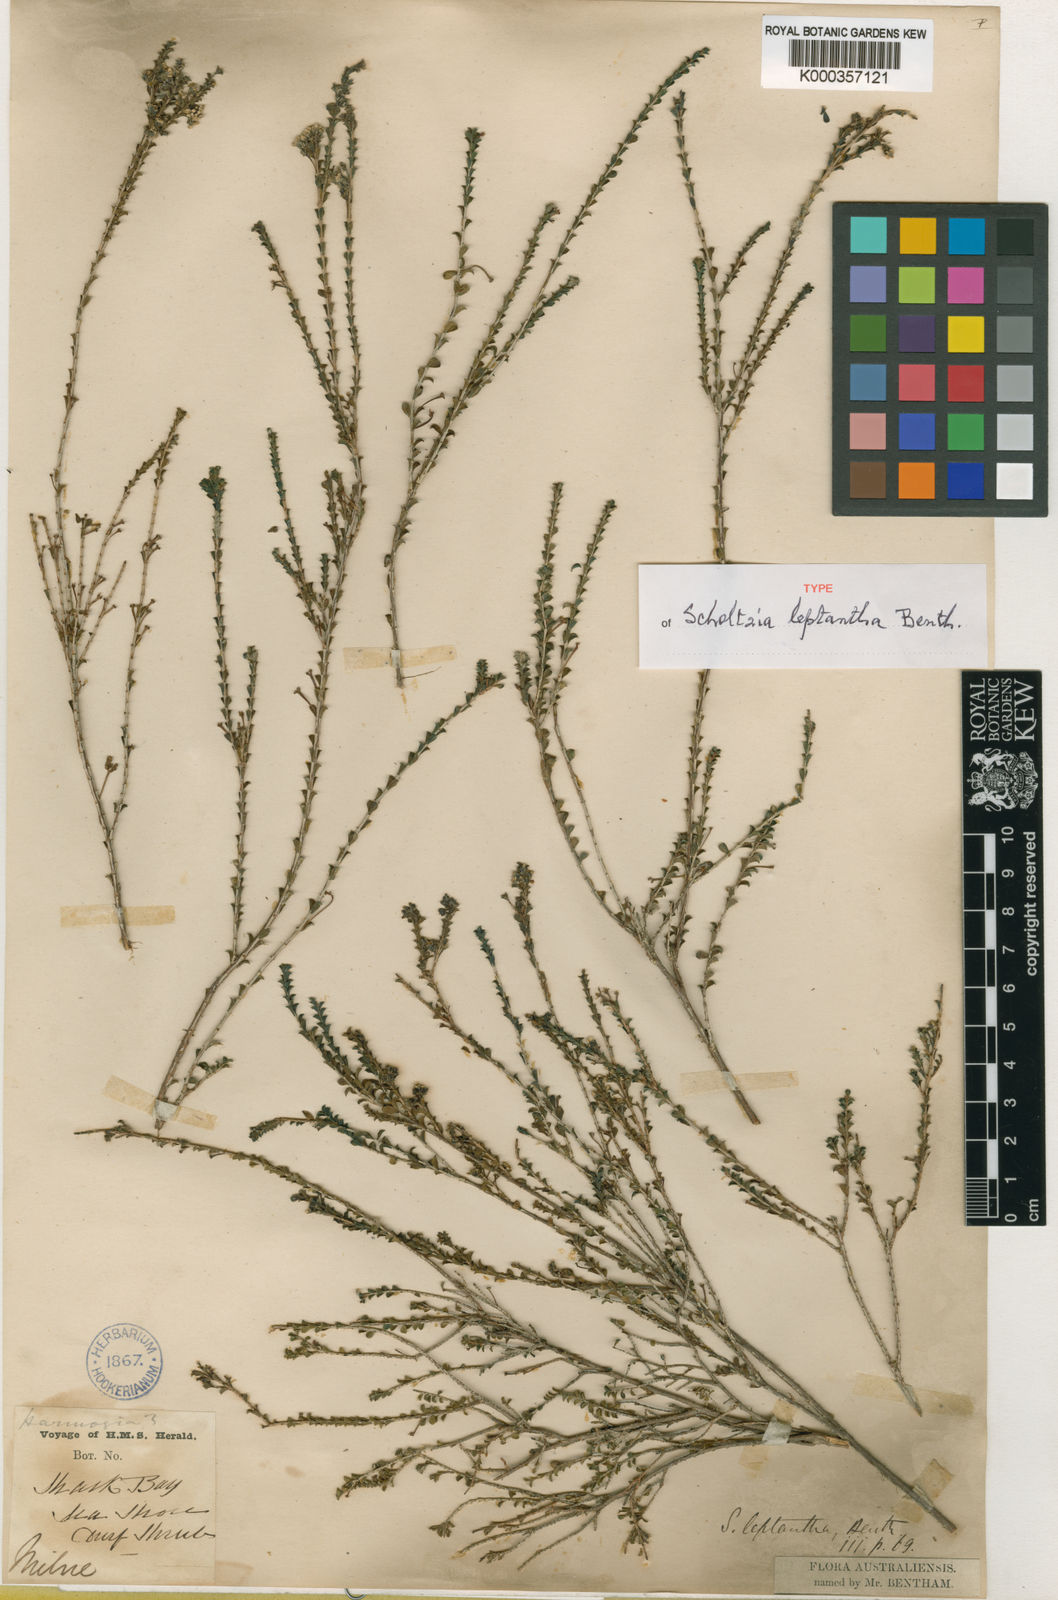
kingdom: Plantae
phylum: Tracheophyta
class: Magnoliopsida
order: Myrtales
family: Myrtaceae
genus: Scholtzia
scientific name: Scholtzia leptantha
